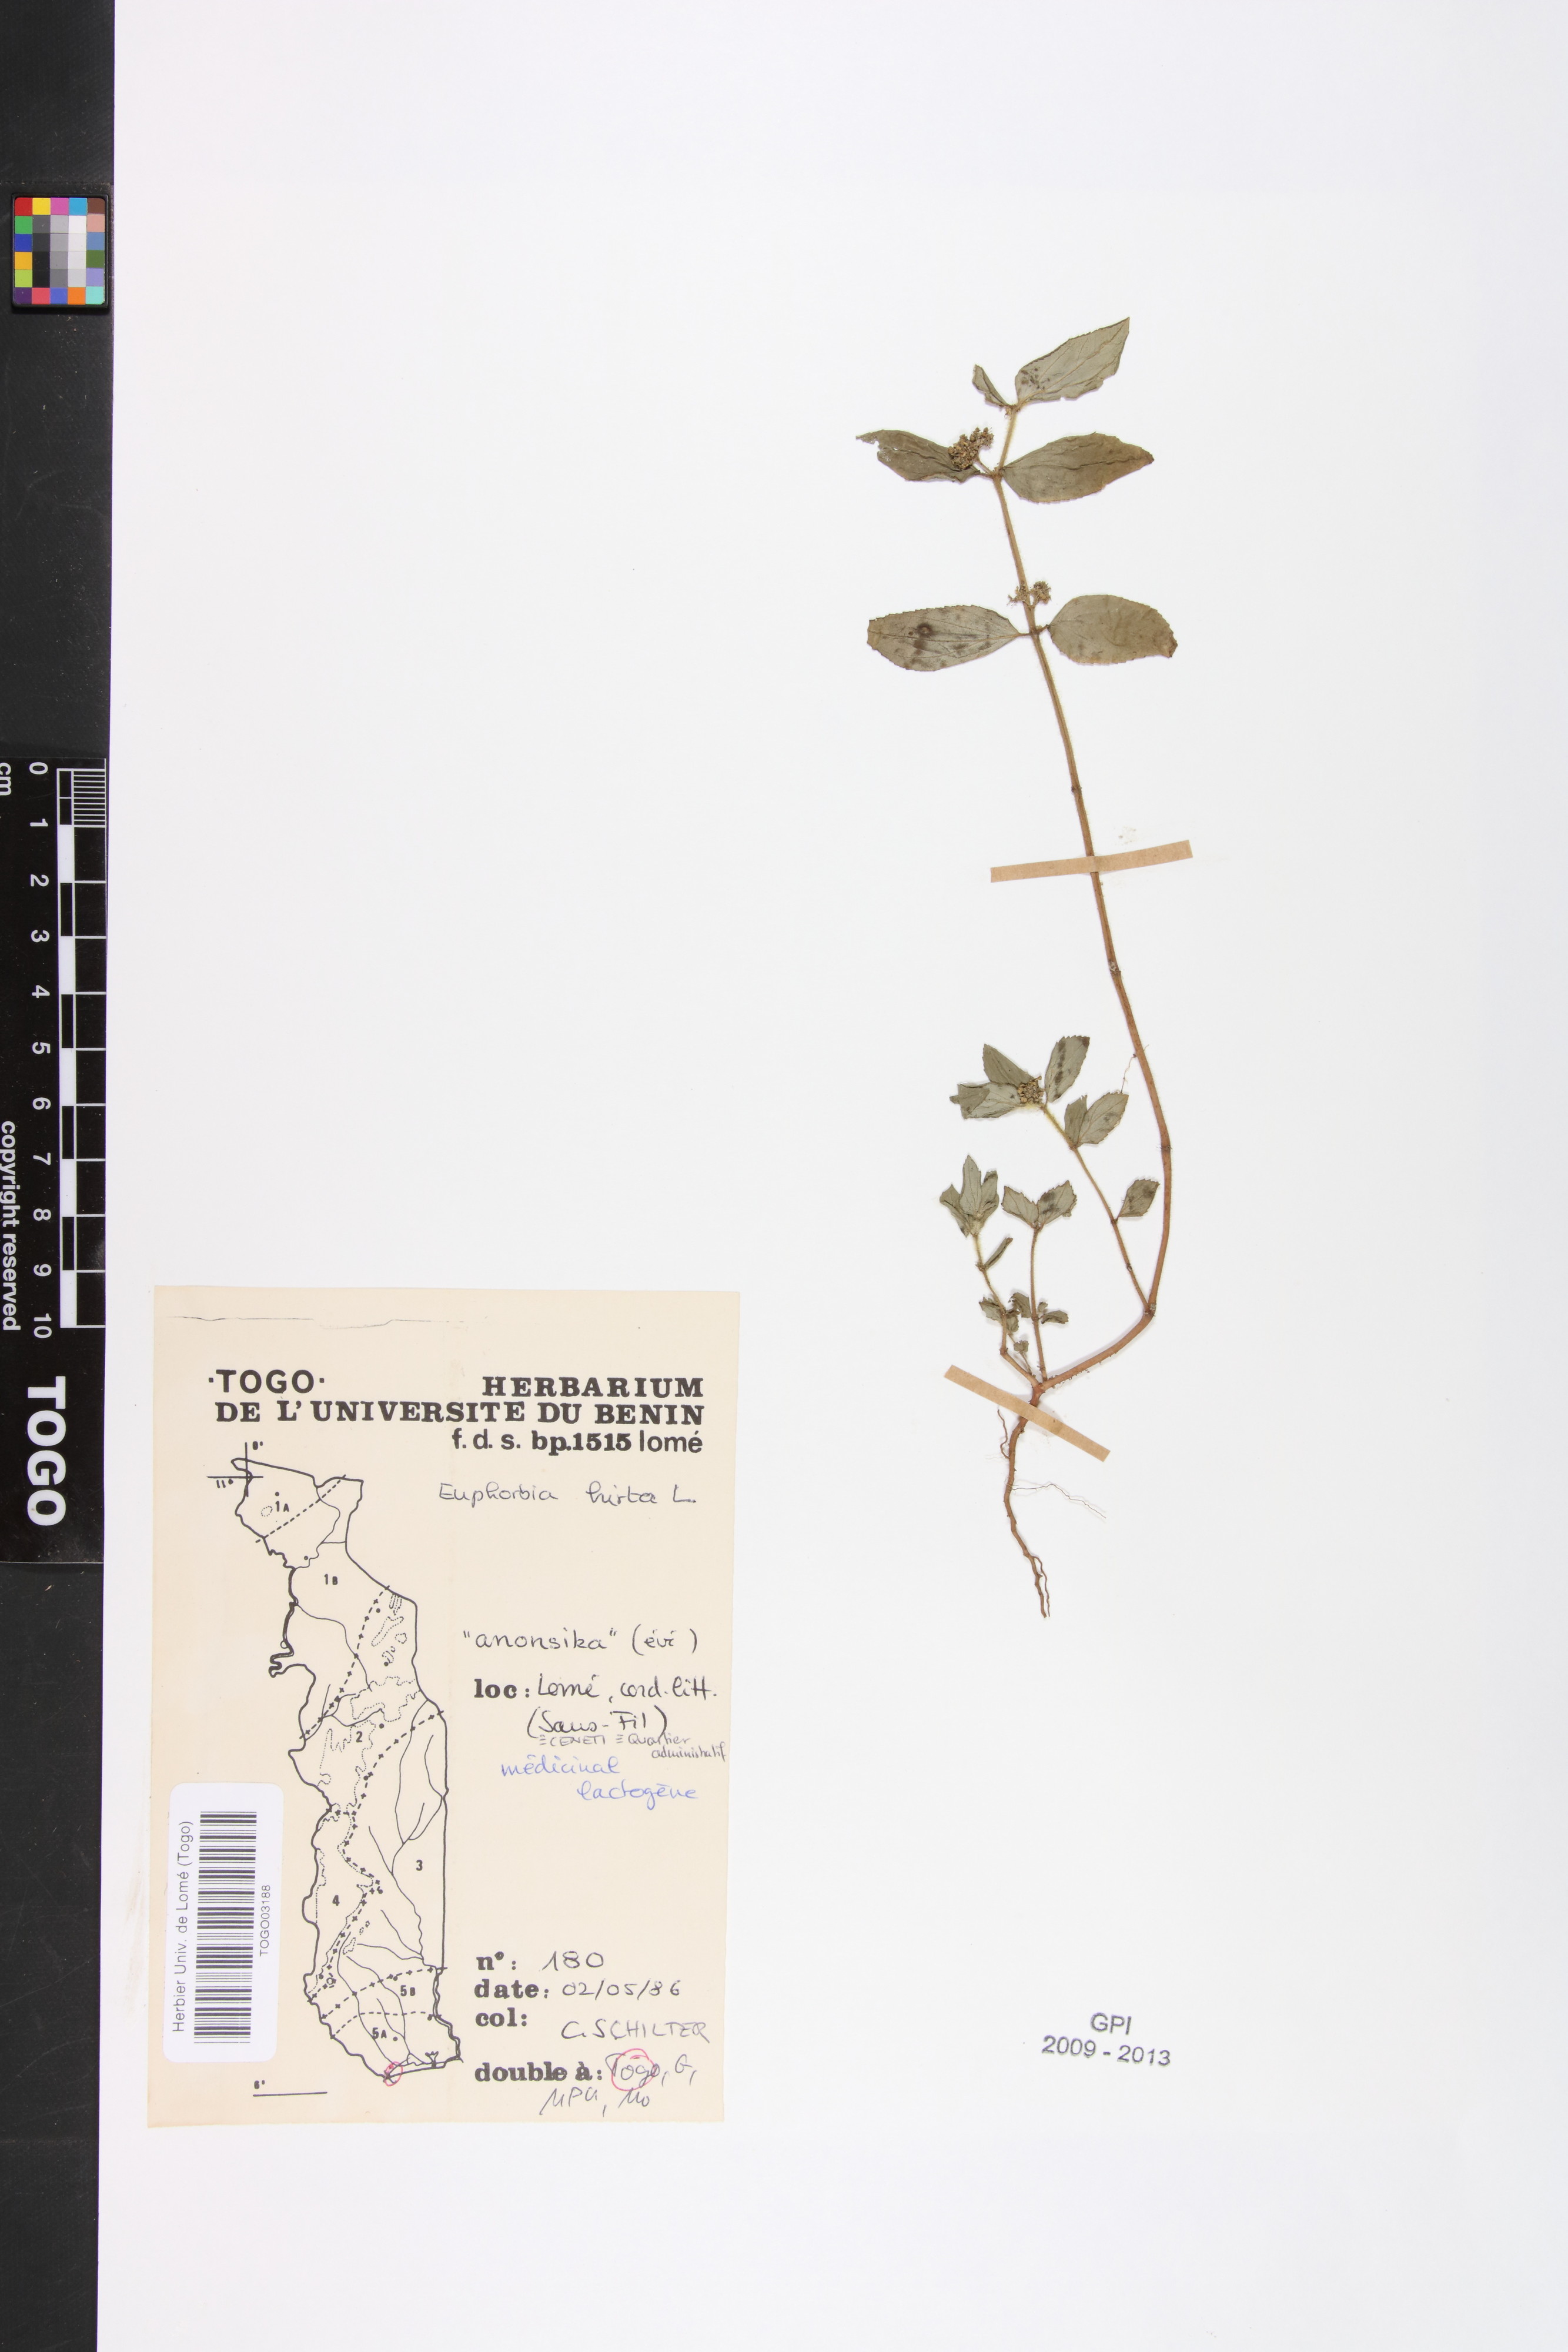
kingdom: Plantae
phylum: Tracheophyta
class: Magnoliopsida
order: Malpighiales
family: Euphorbiaceae
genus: Euphorbia
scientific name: Euphorbia hirta
